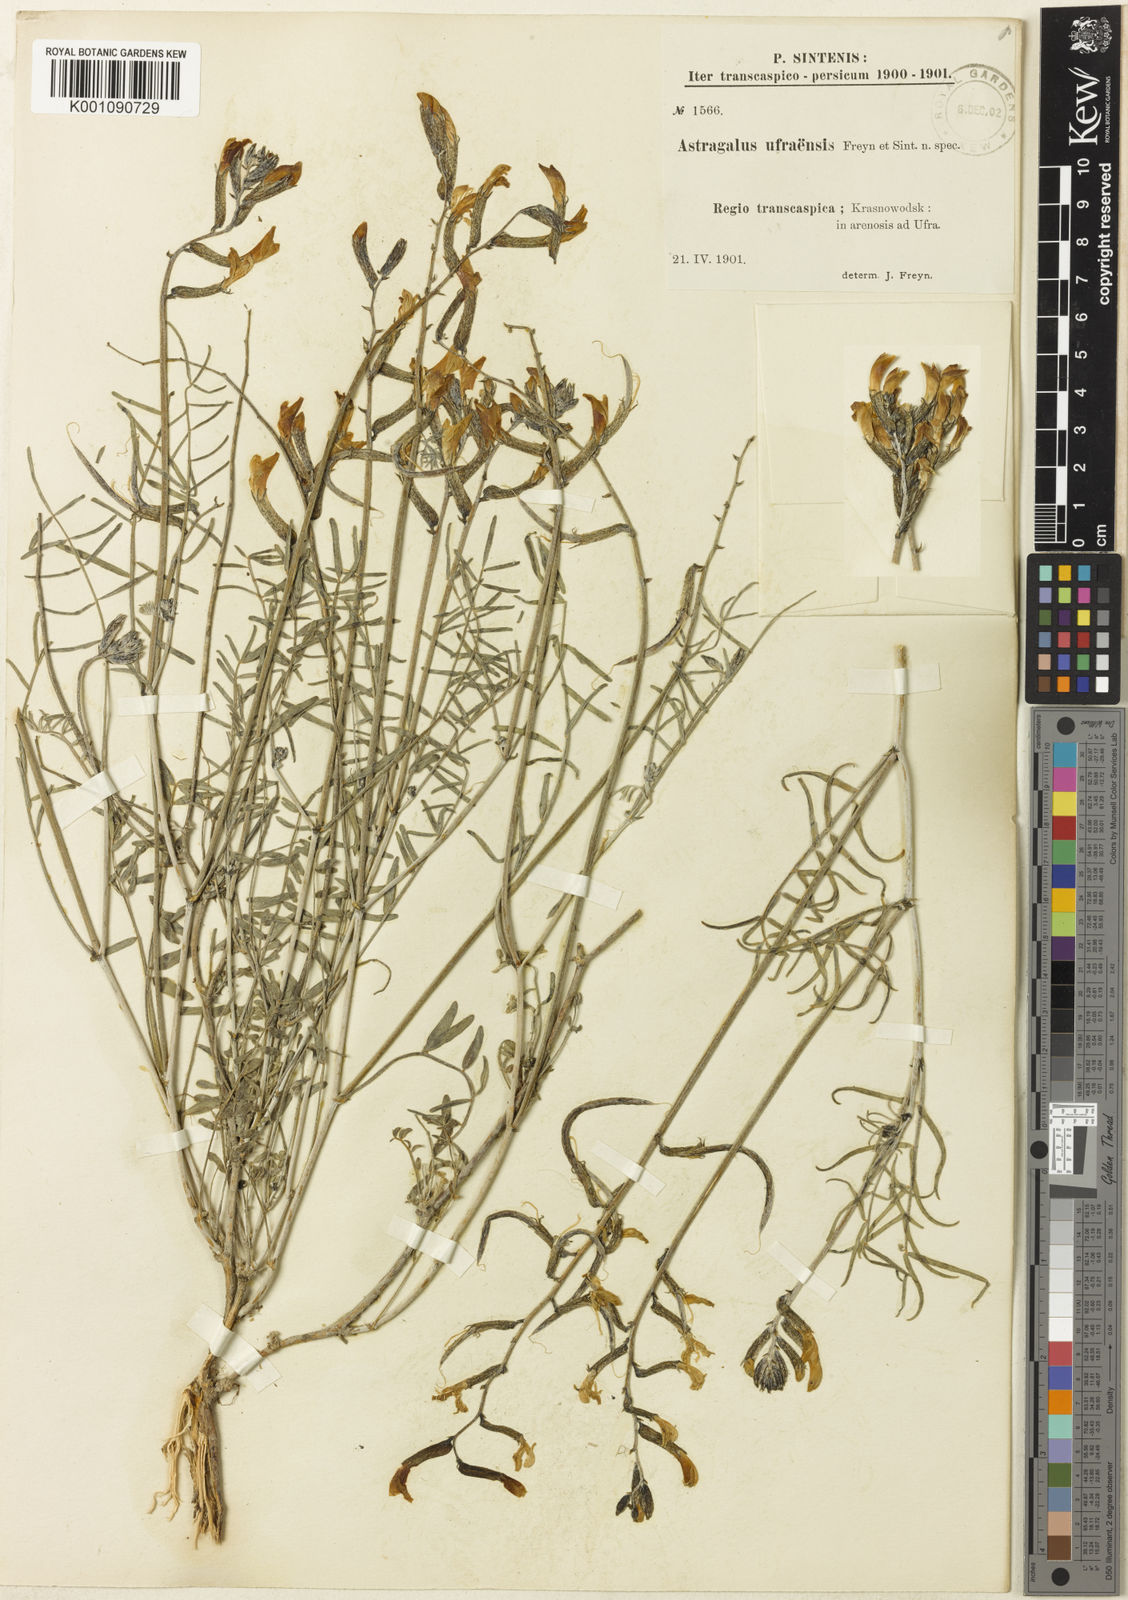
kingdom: Plantae
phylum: Tracheophyta
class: Magnoliopsida
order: Fabales
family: Fabaceae
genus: Astragalus
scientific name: Astragalus
